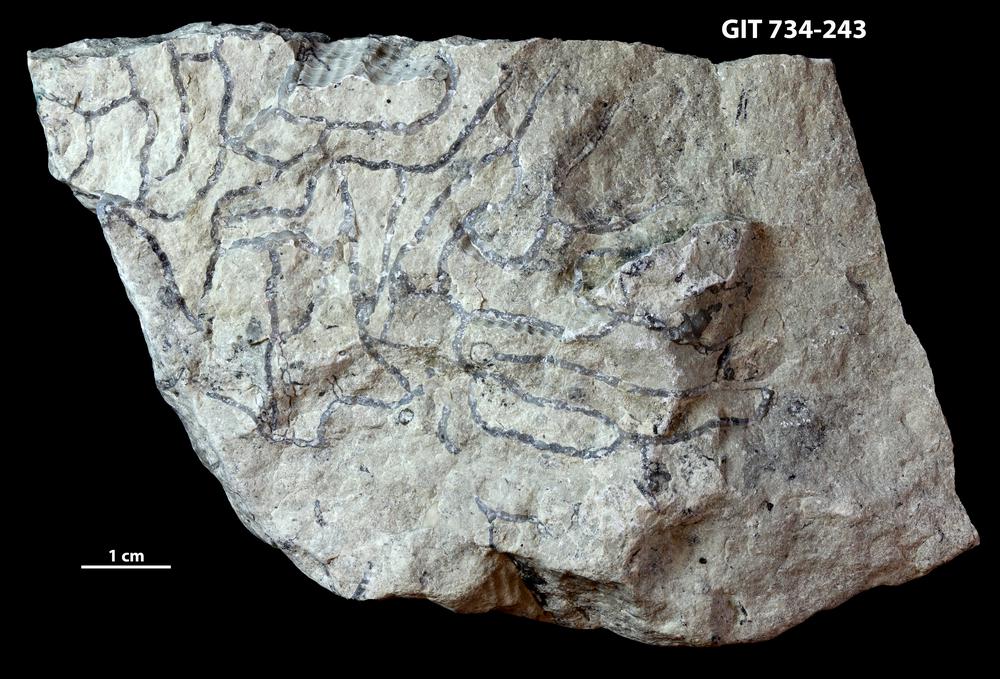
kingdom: Animalia
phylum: Cnidaria
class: Anthozoa
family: Cateniporidae
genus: Catenipora
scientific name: Catenipora
